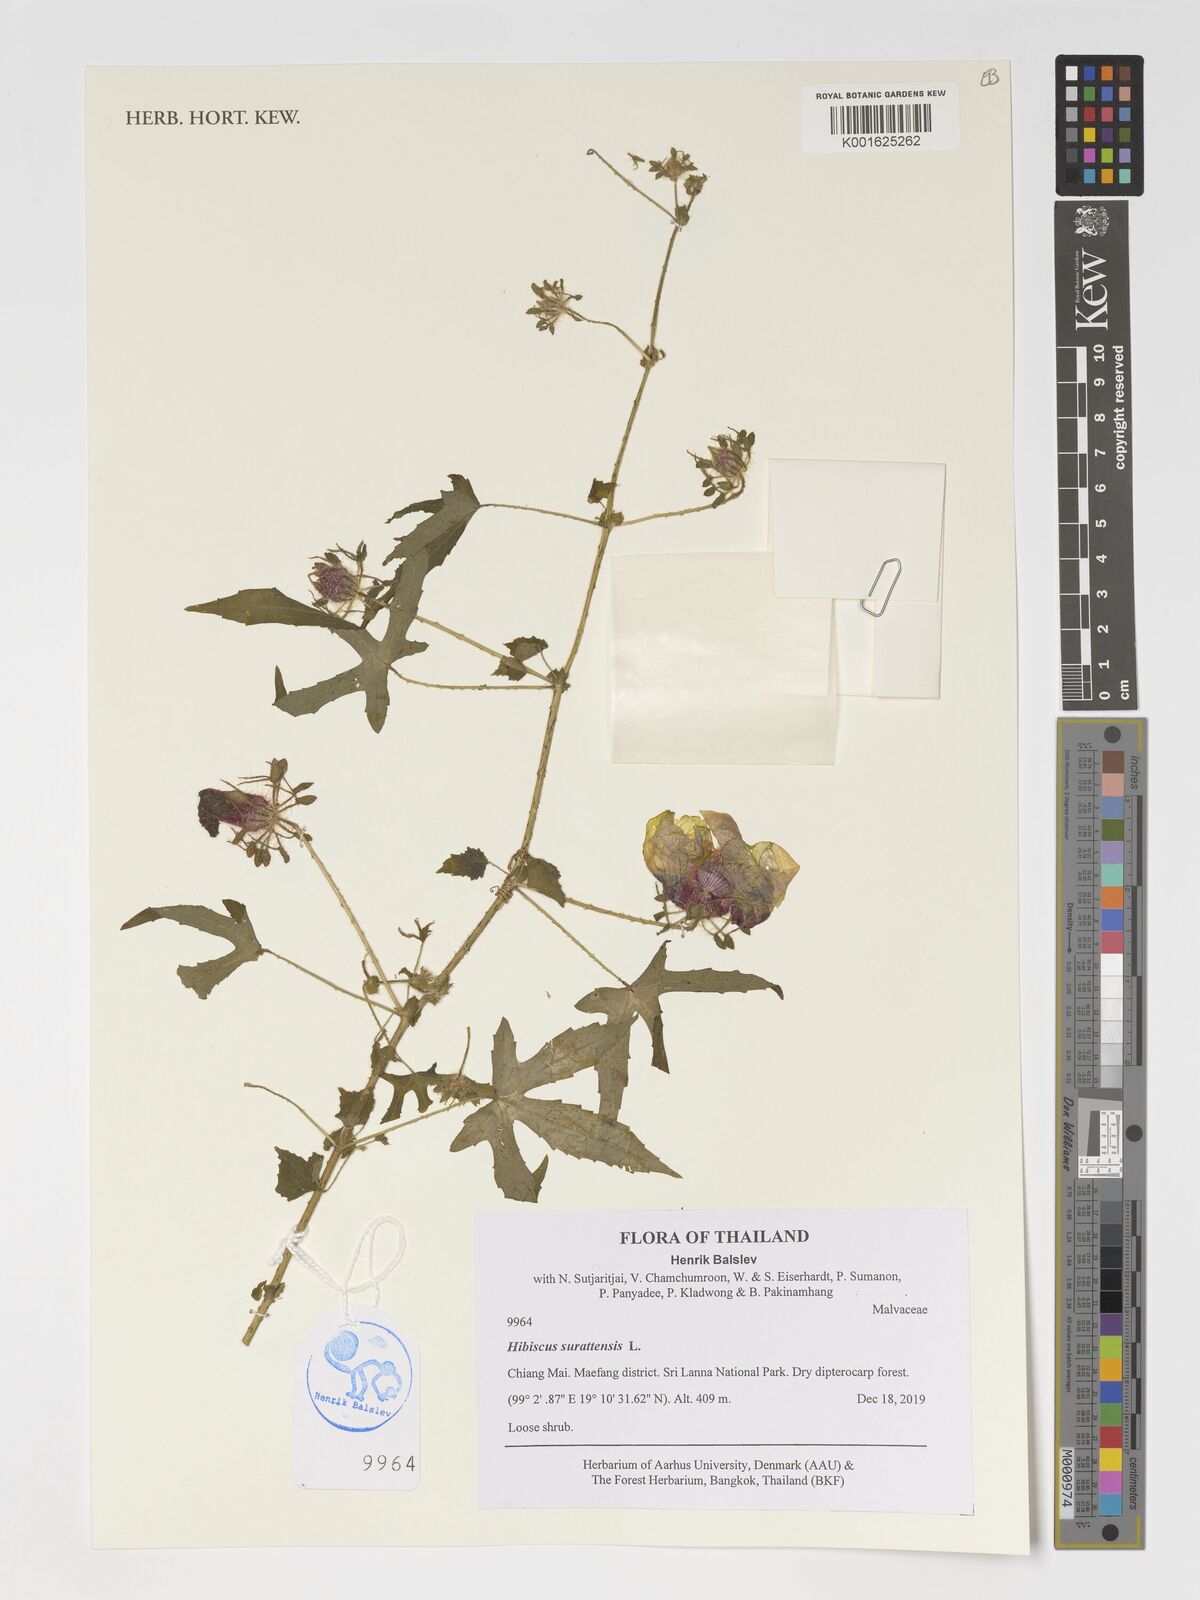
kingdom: Plantae
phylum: Tracheophyta
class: Magnoliopsida
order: Malvales
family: Malvaceae
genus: Hibiscus
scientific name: Hibiscus surattensis
